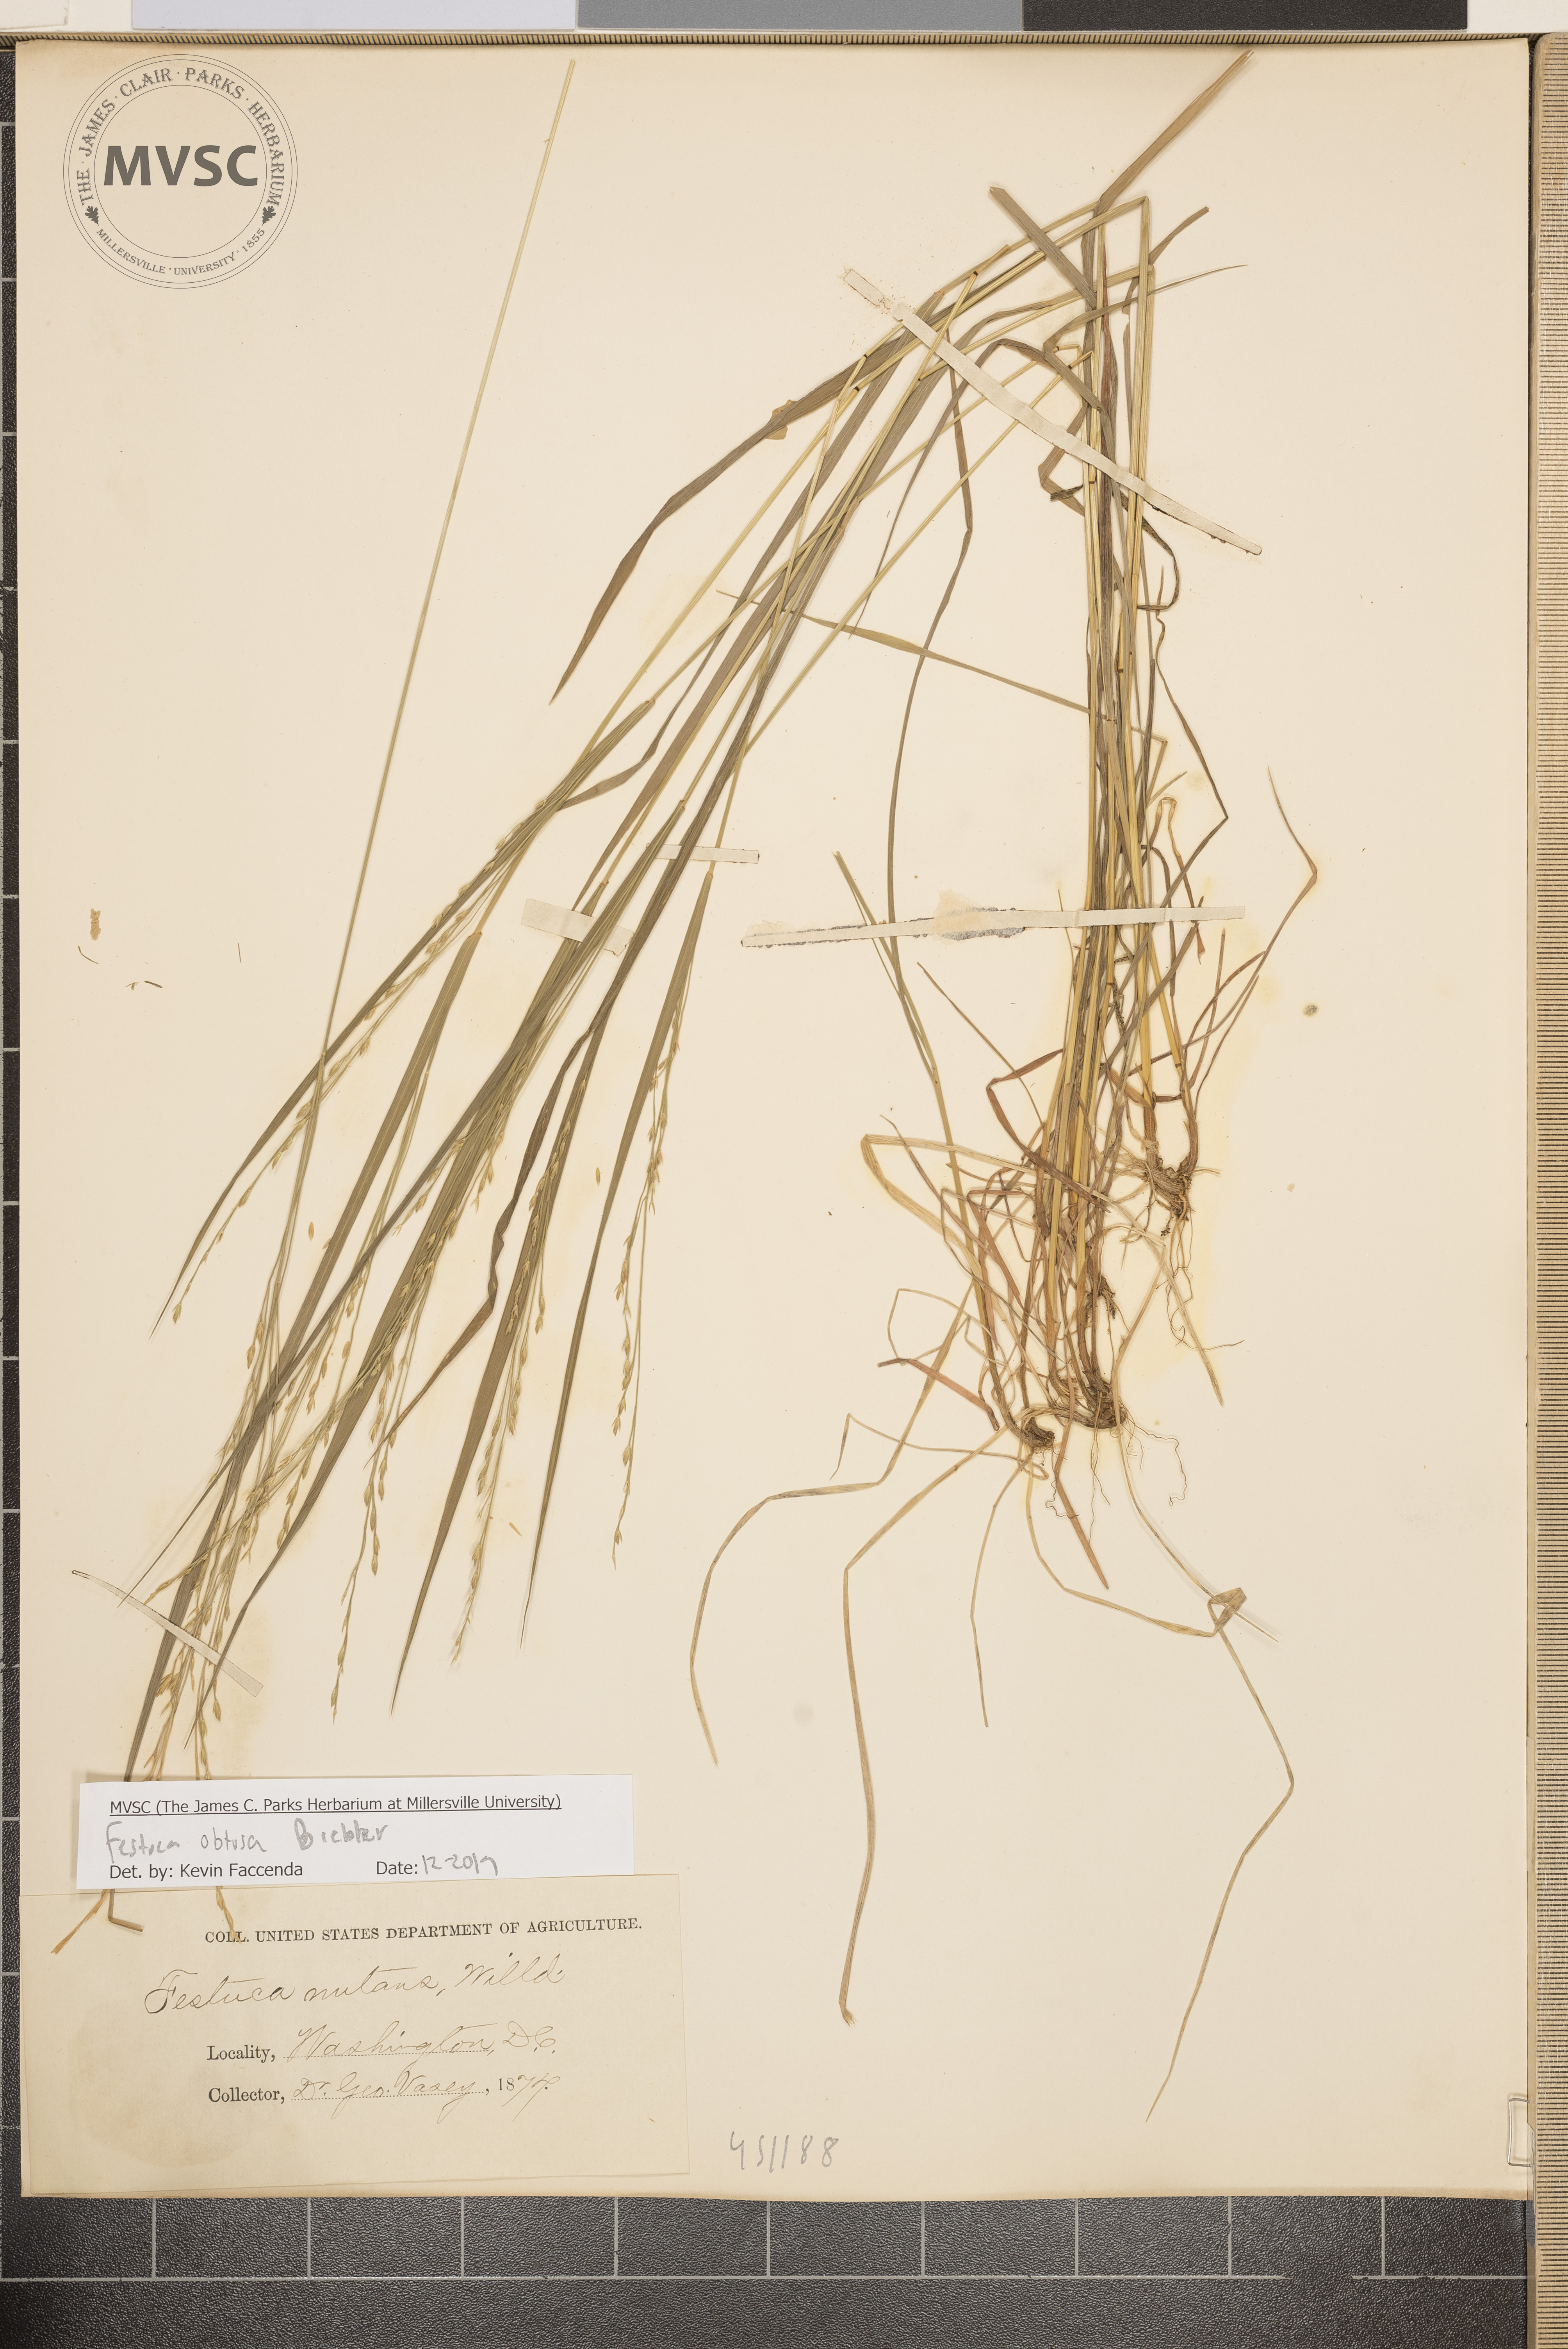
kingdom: Plantae
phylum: Tracheophyta
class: Liliopsida
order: Poales
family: Poaceae
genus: Festuca
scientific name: Festuca subverticillata
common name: Nodding fescue
